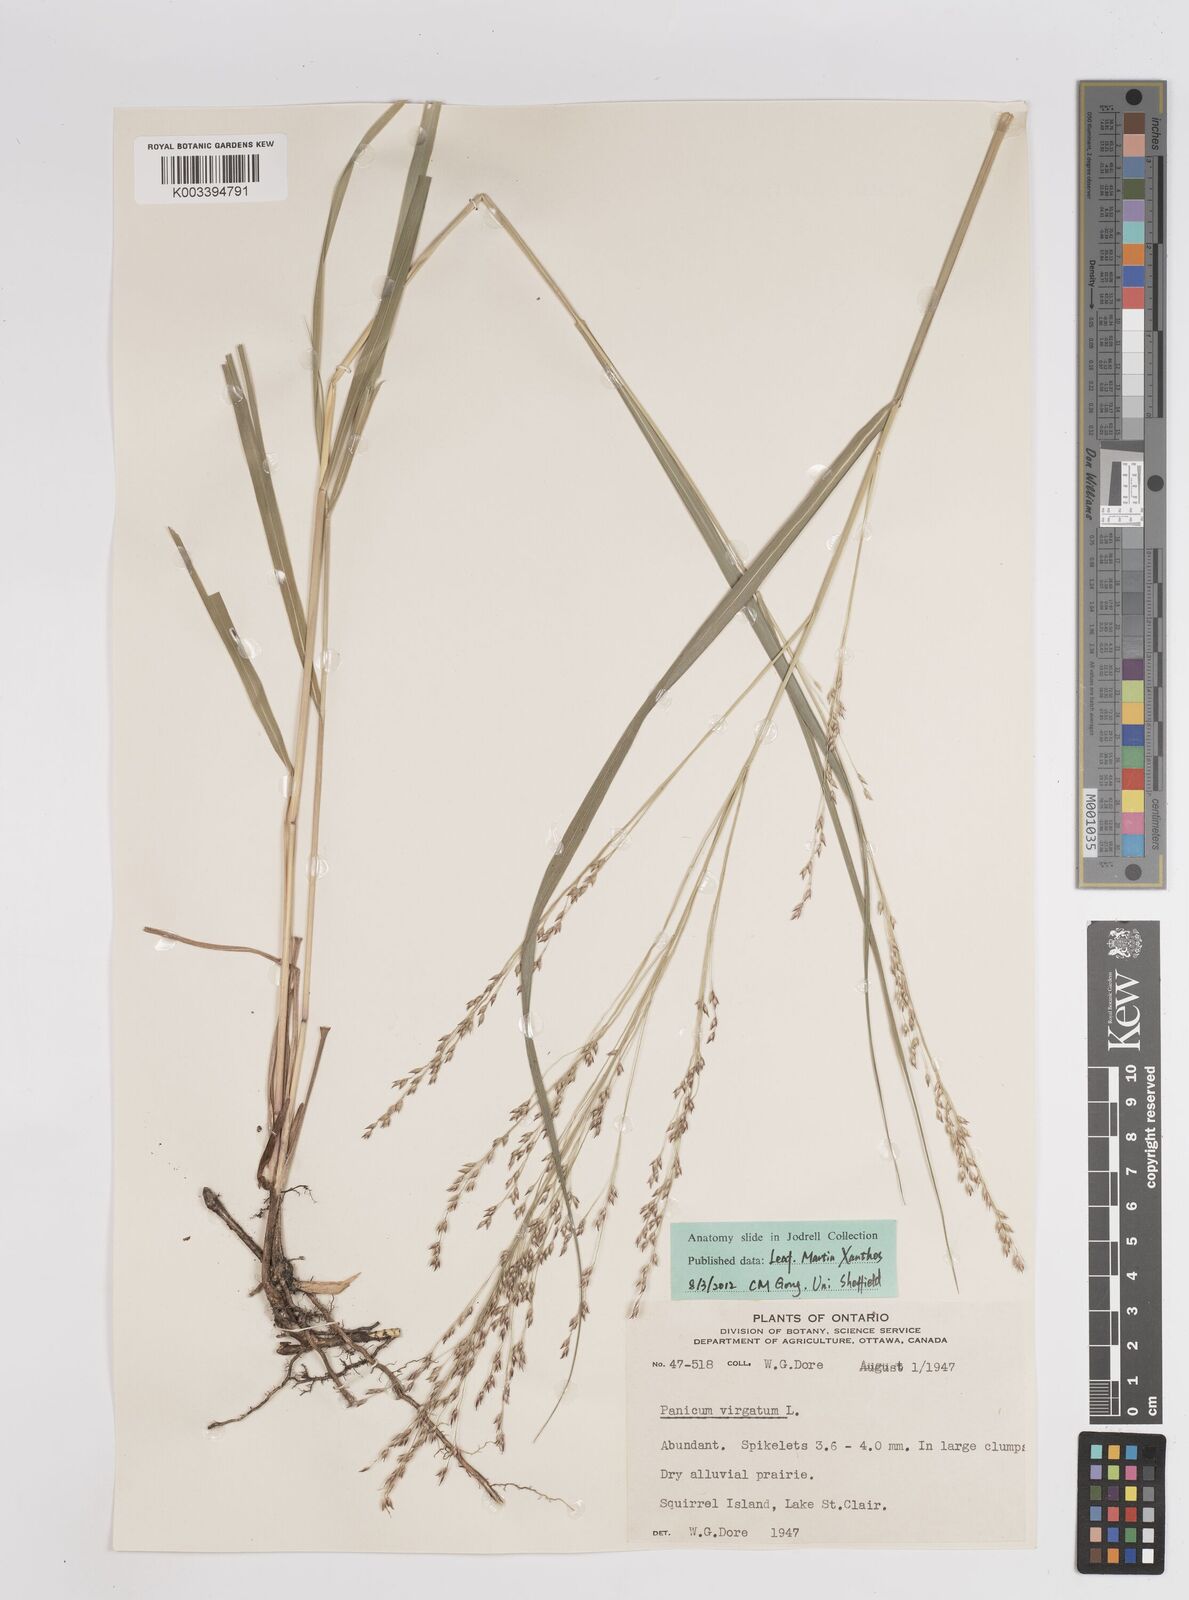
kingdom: Plantae
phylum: Tracheophyta
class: Liliopsida
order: Poales
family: Poaceae
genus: Panicum
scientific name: Panicum virgatum
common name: Switchgrass
